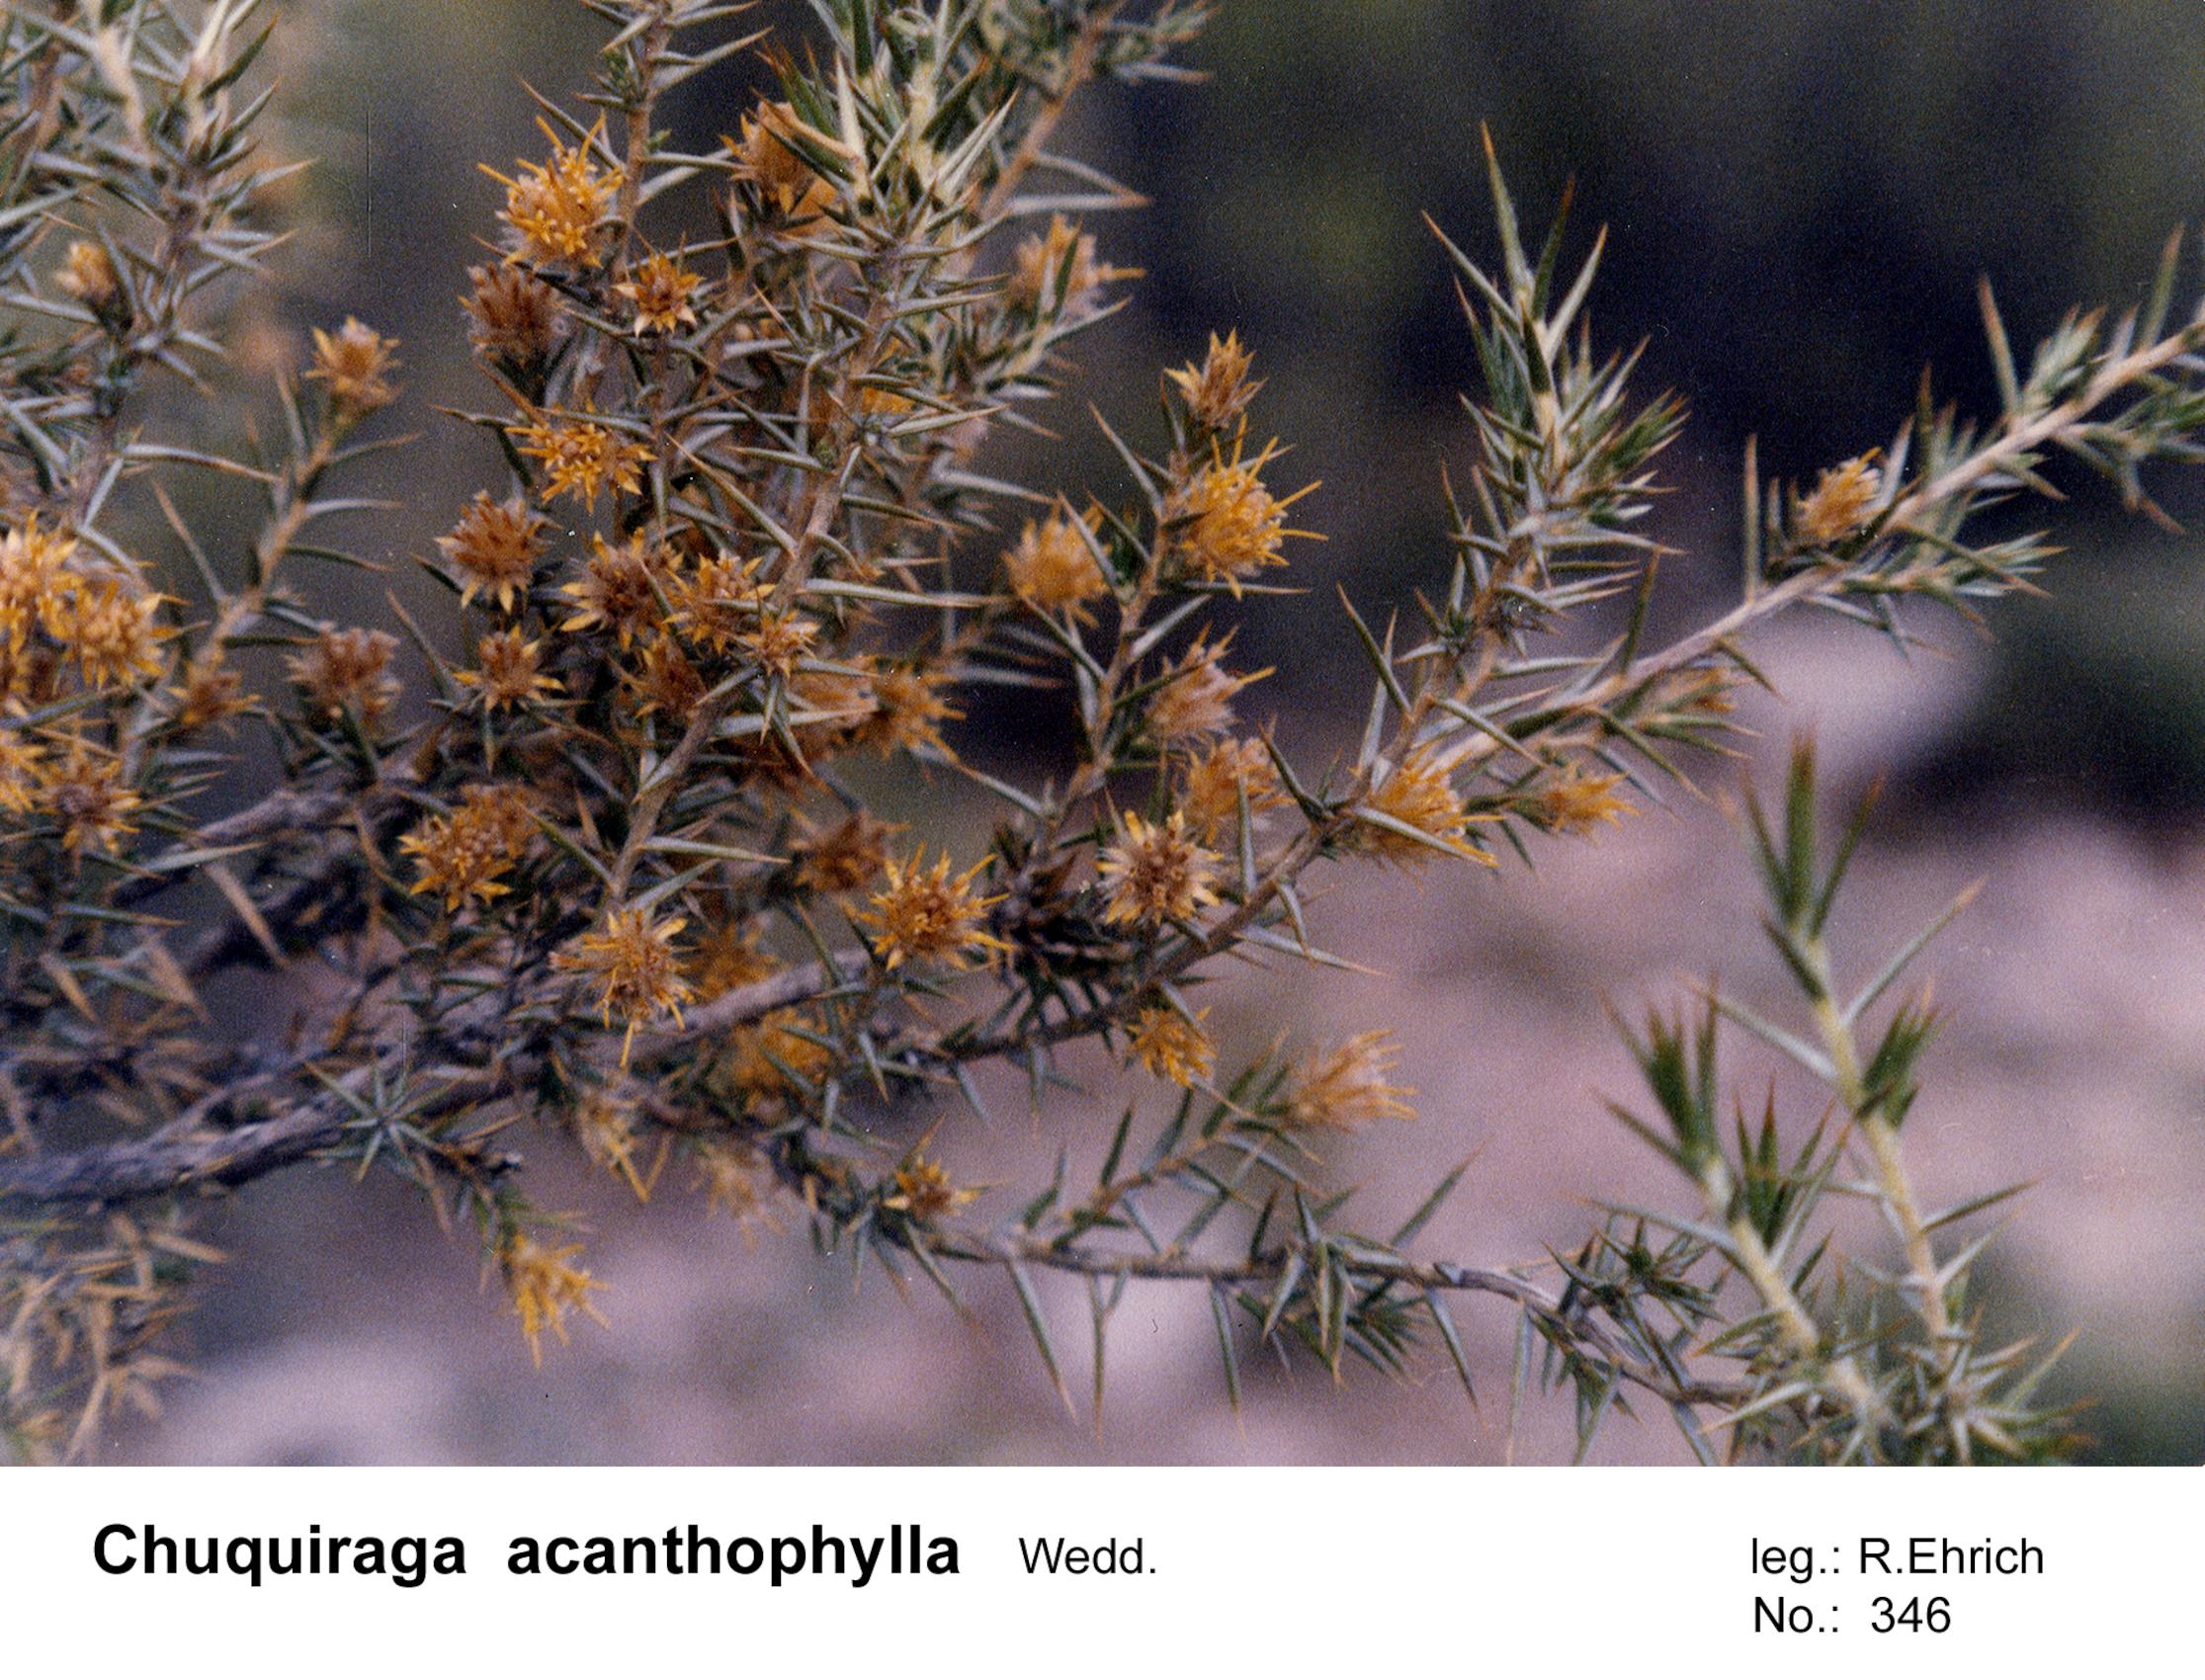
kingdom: Plantae
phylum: Tracheophyta
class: Magnoliopsida
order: Asterales
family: Asteraceae
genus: Chuquiraga
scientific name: Chuquiraga acanthophylla
